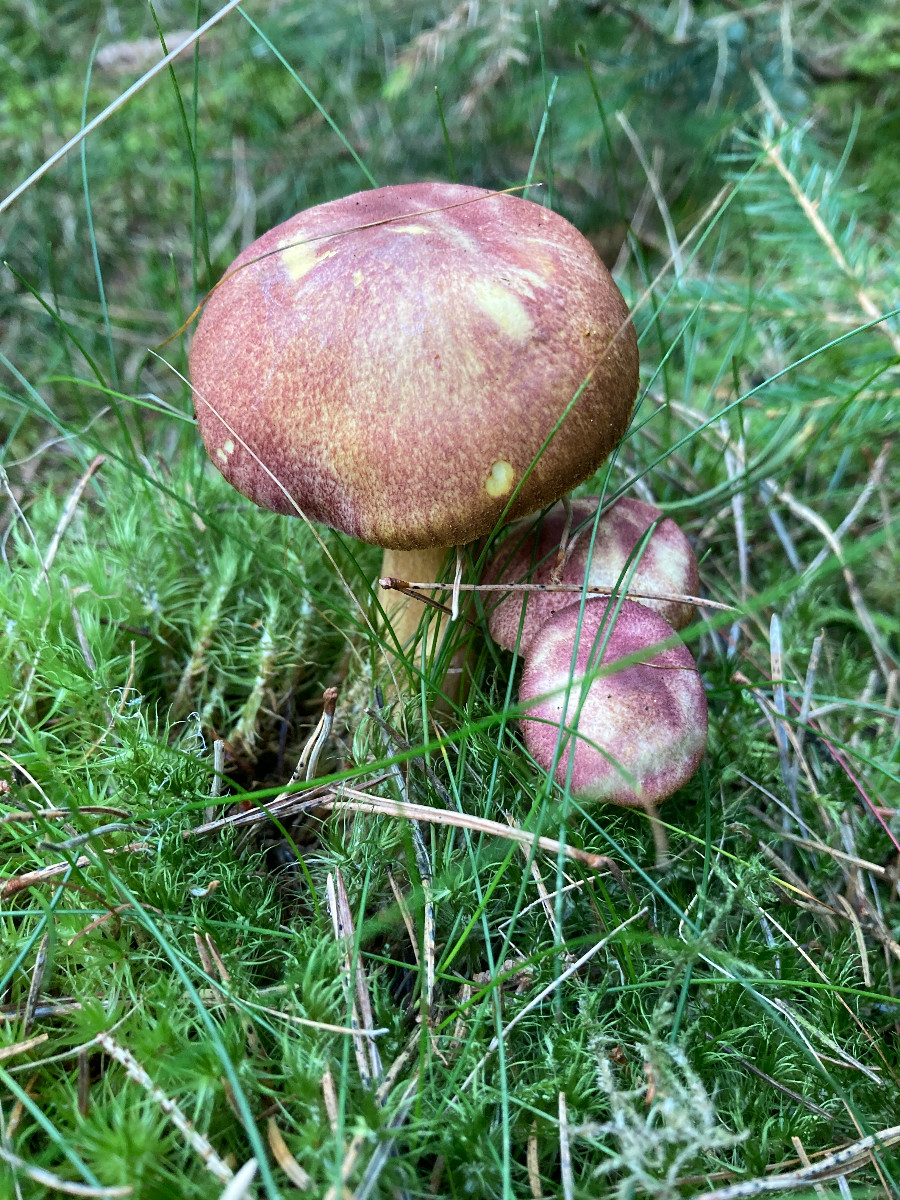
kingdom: Fungi
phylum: Basidiomycota
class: Agaricomycetes
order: Agaricales
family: Tricholomataceae
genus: Tricholomopsis
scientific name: Tricholomopsis rutilans
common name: purpur-væbnerhat
